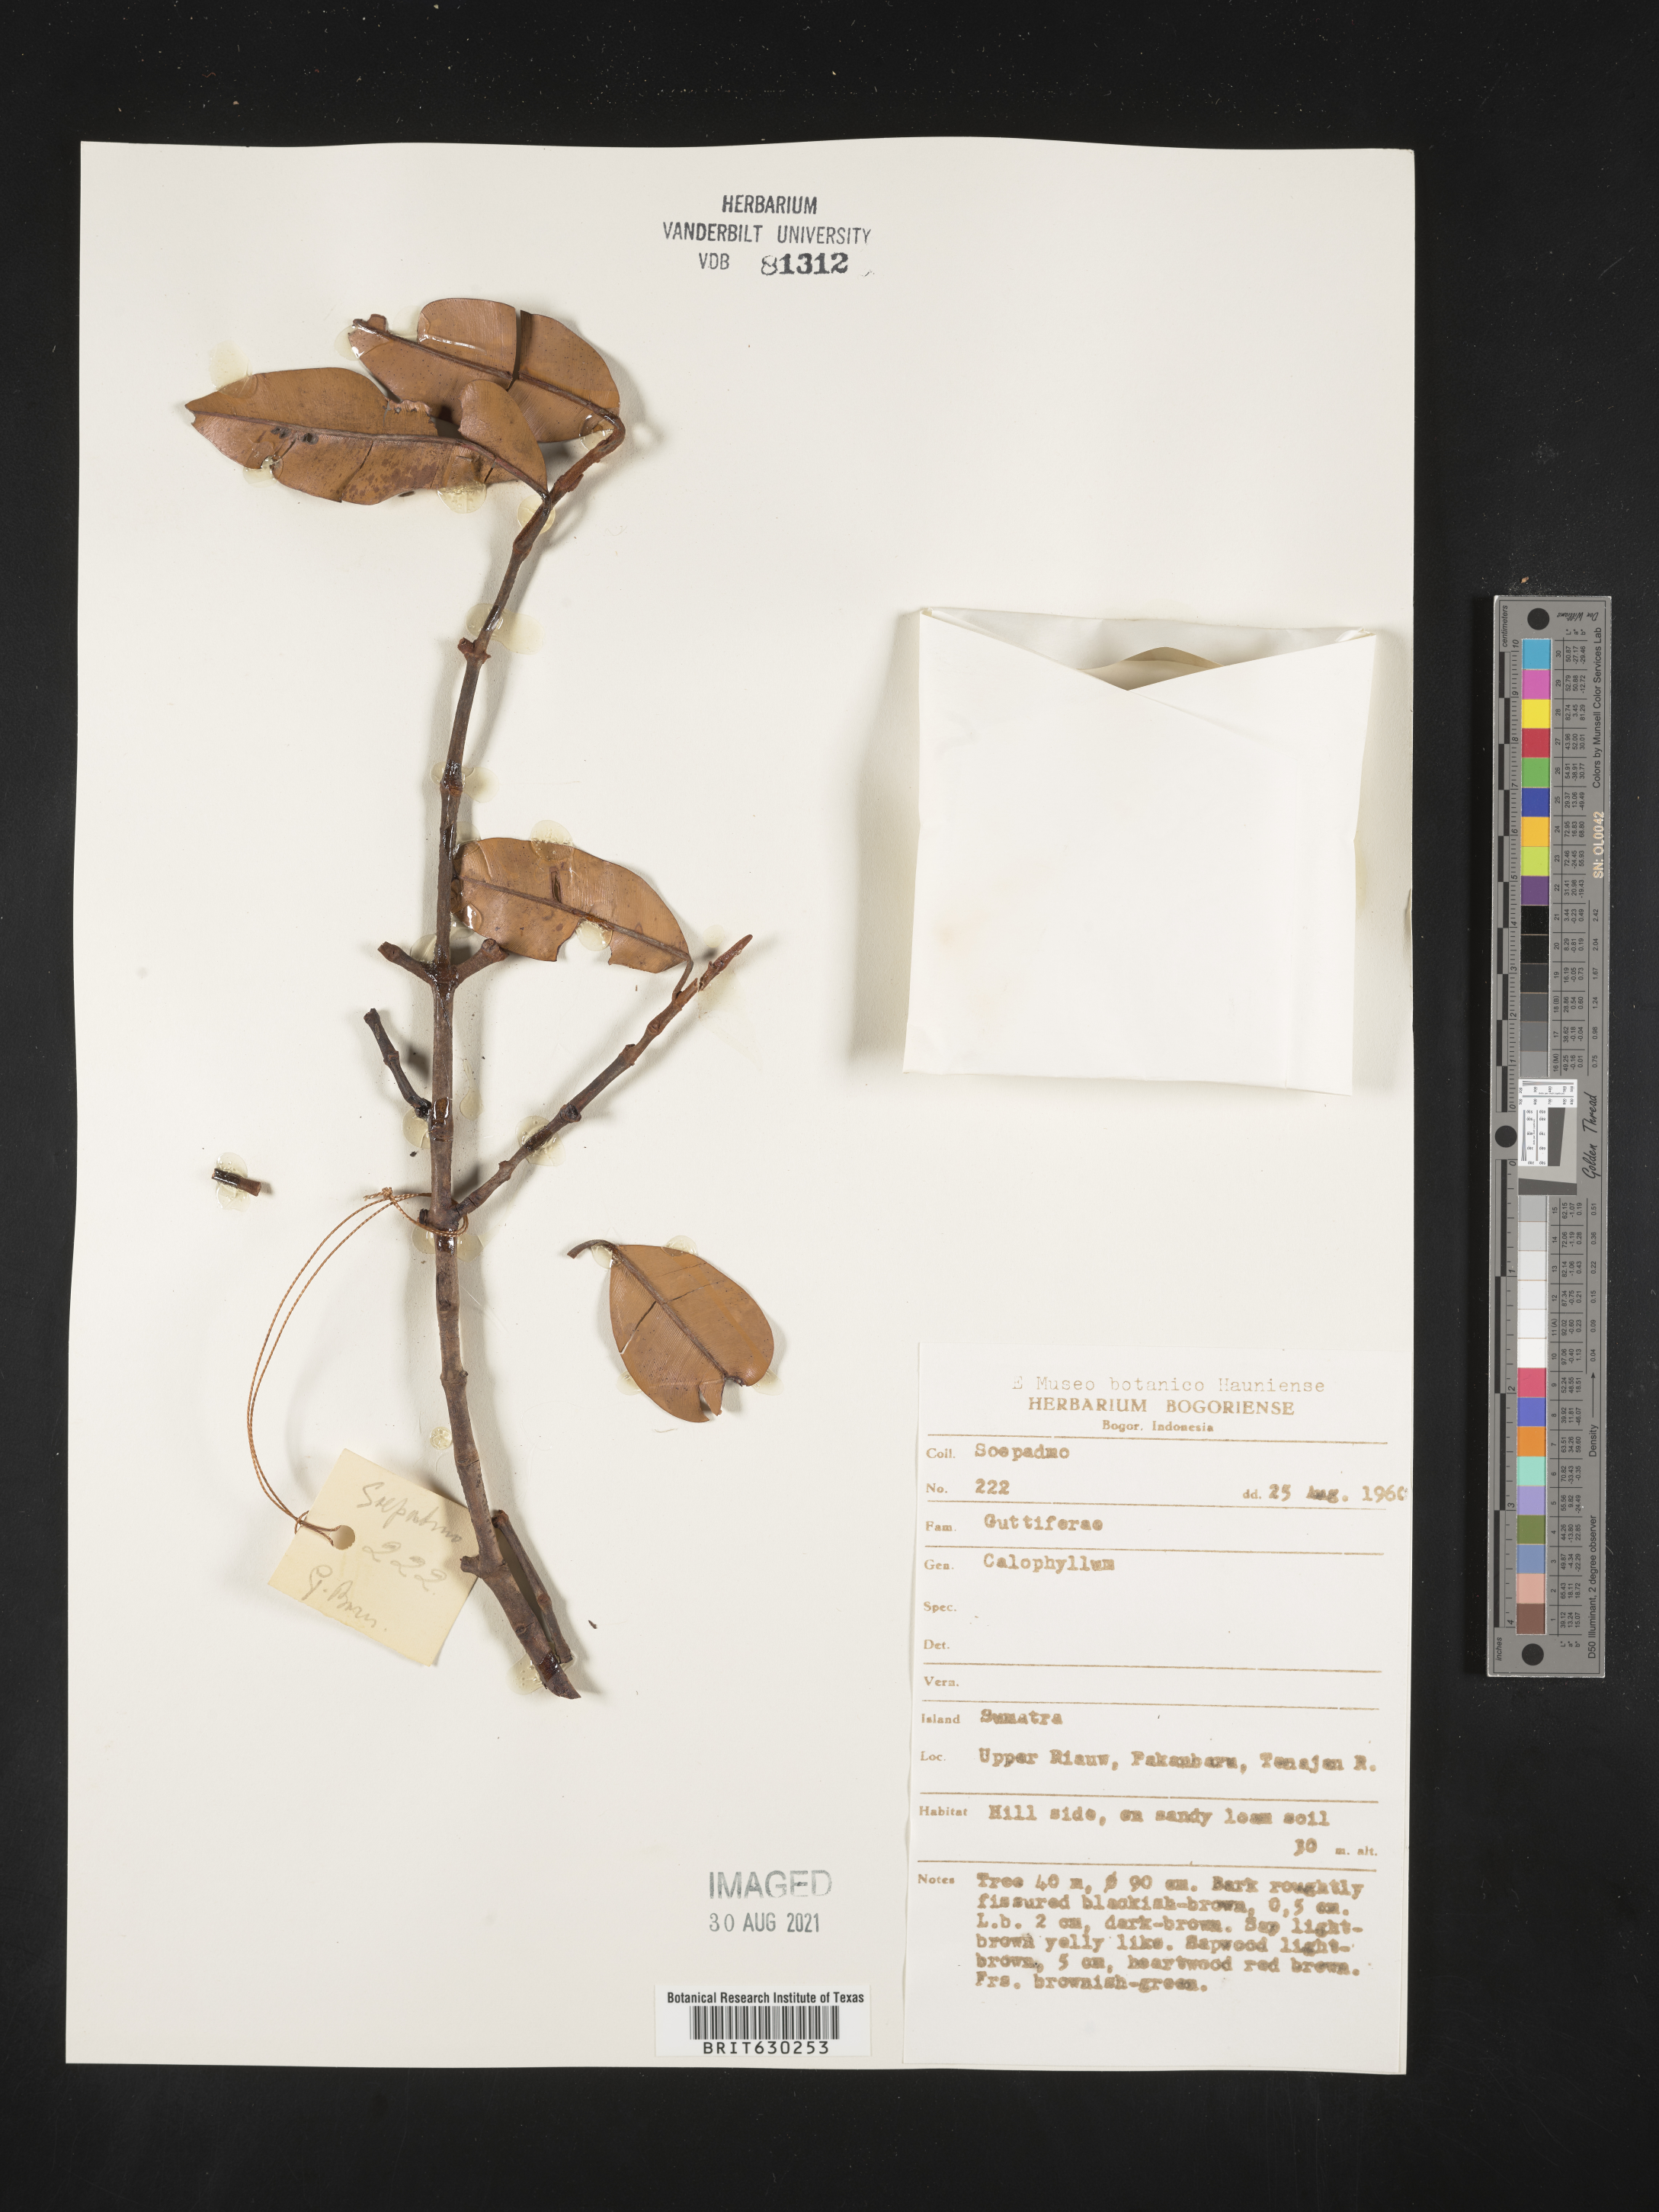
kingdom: Plantae
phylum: Tracheophyta
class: Magnoliopsida
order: Malpighiales
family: Calophyllaceae
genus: Calophyllum
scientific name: Calophyllum
